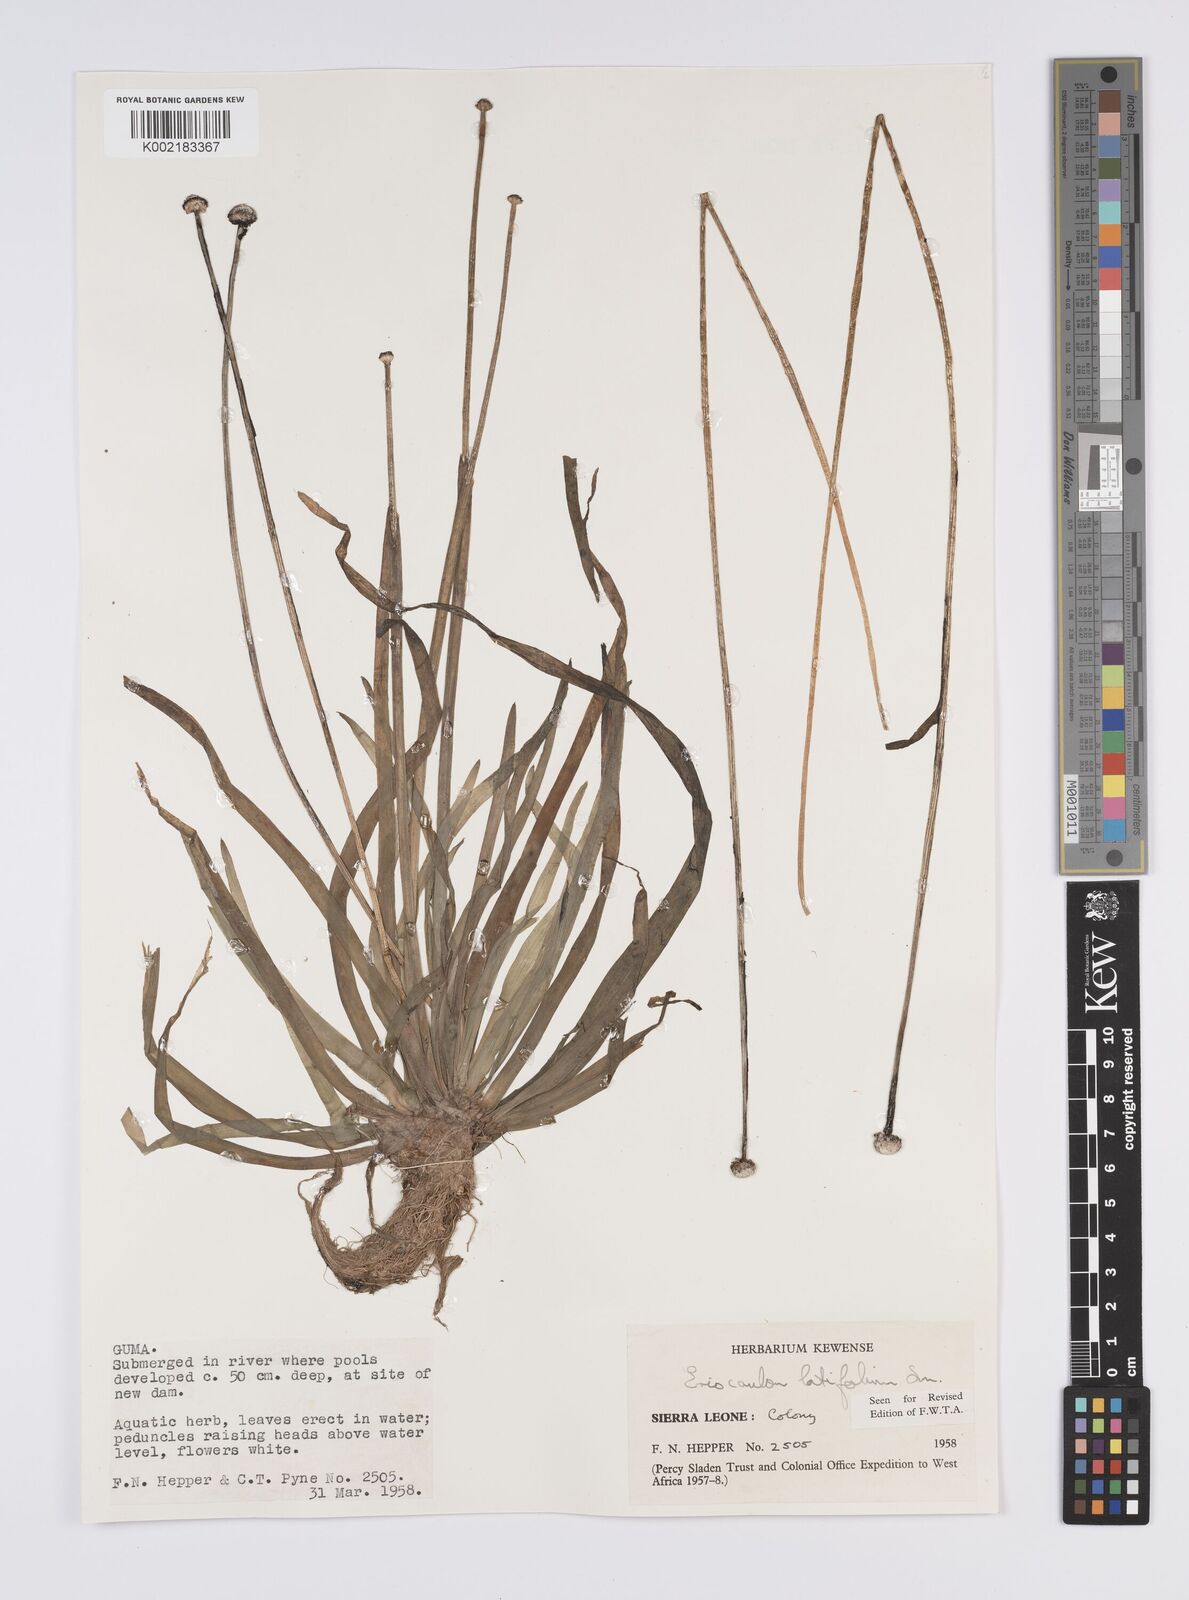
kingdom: Plantae
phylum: Tracheophyta
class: Liliopsida
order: Poales
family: Eriocaulaceae
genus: Eriocaulon
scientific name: Eriocaulon latifolium
